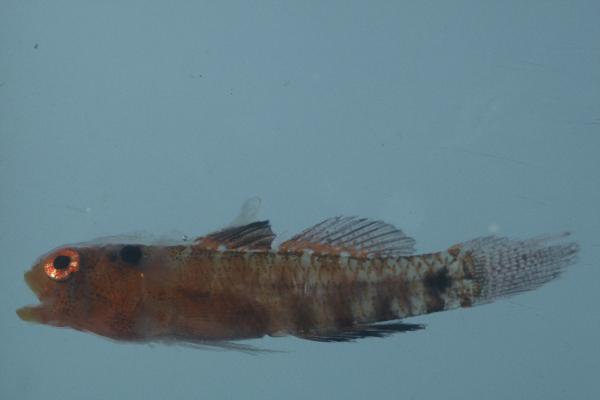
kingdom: Animalia
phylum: Chordata
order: Perciformes
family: Gobiidae
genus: Eviota
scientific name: Eviota notata
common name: Barhead dwarfgoby
